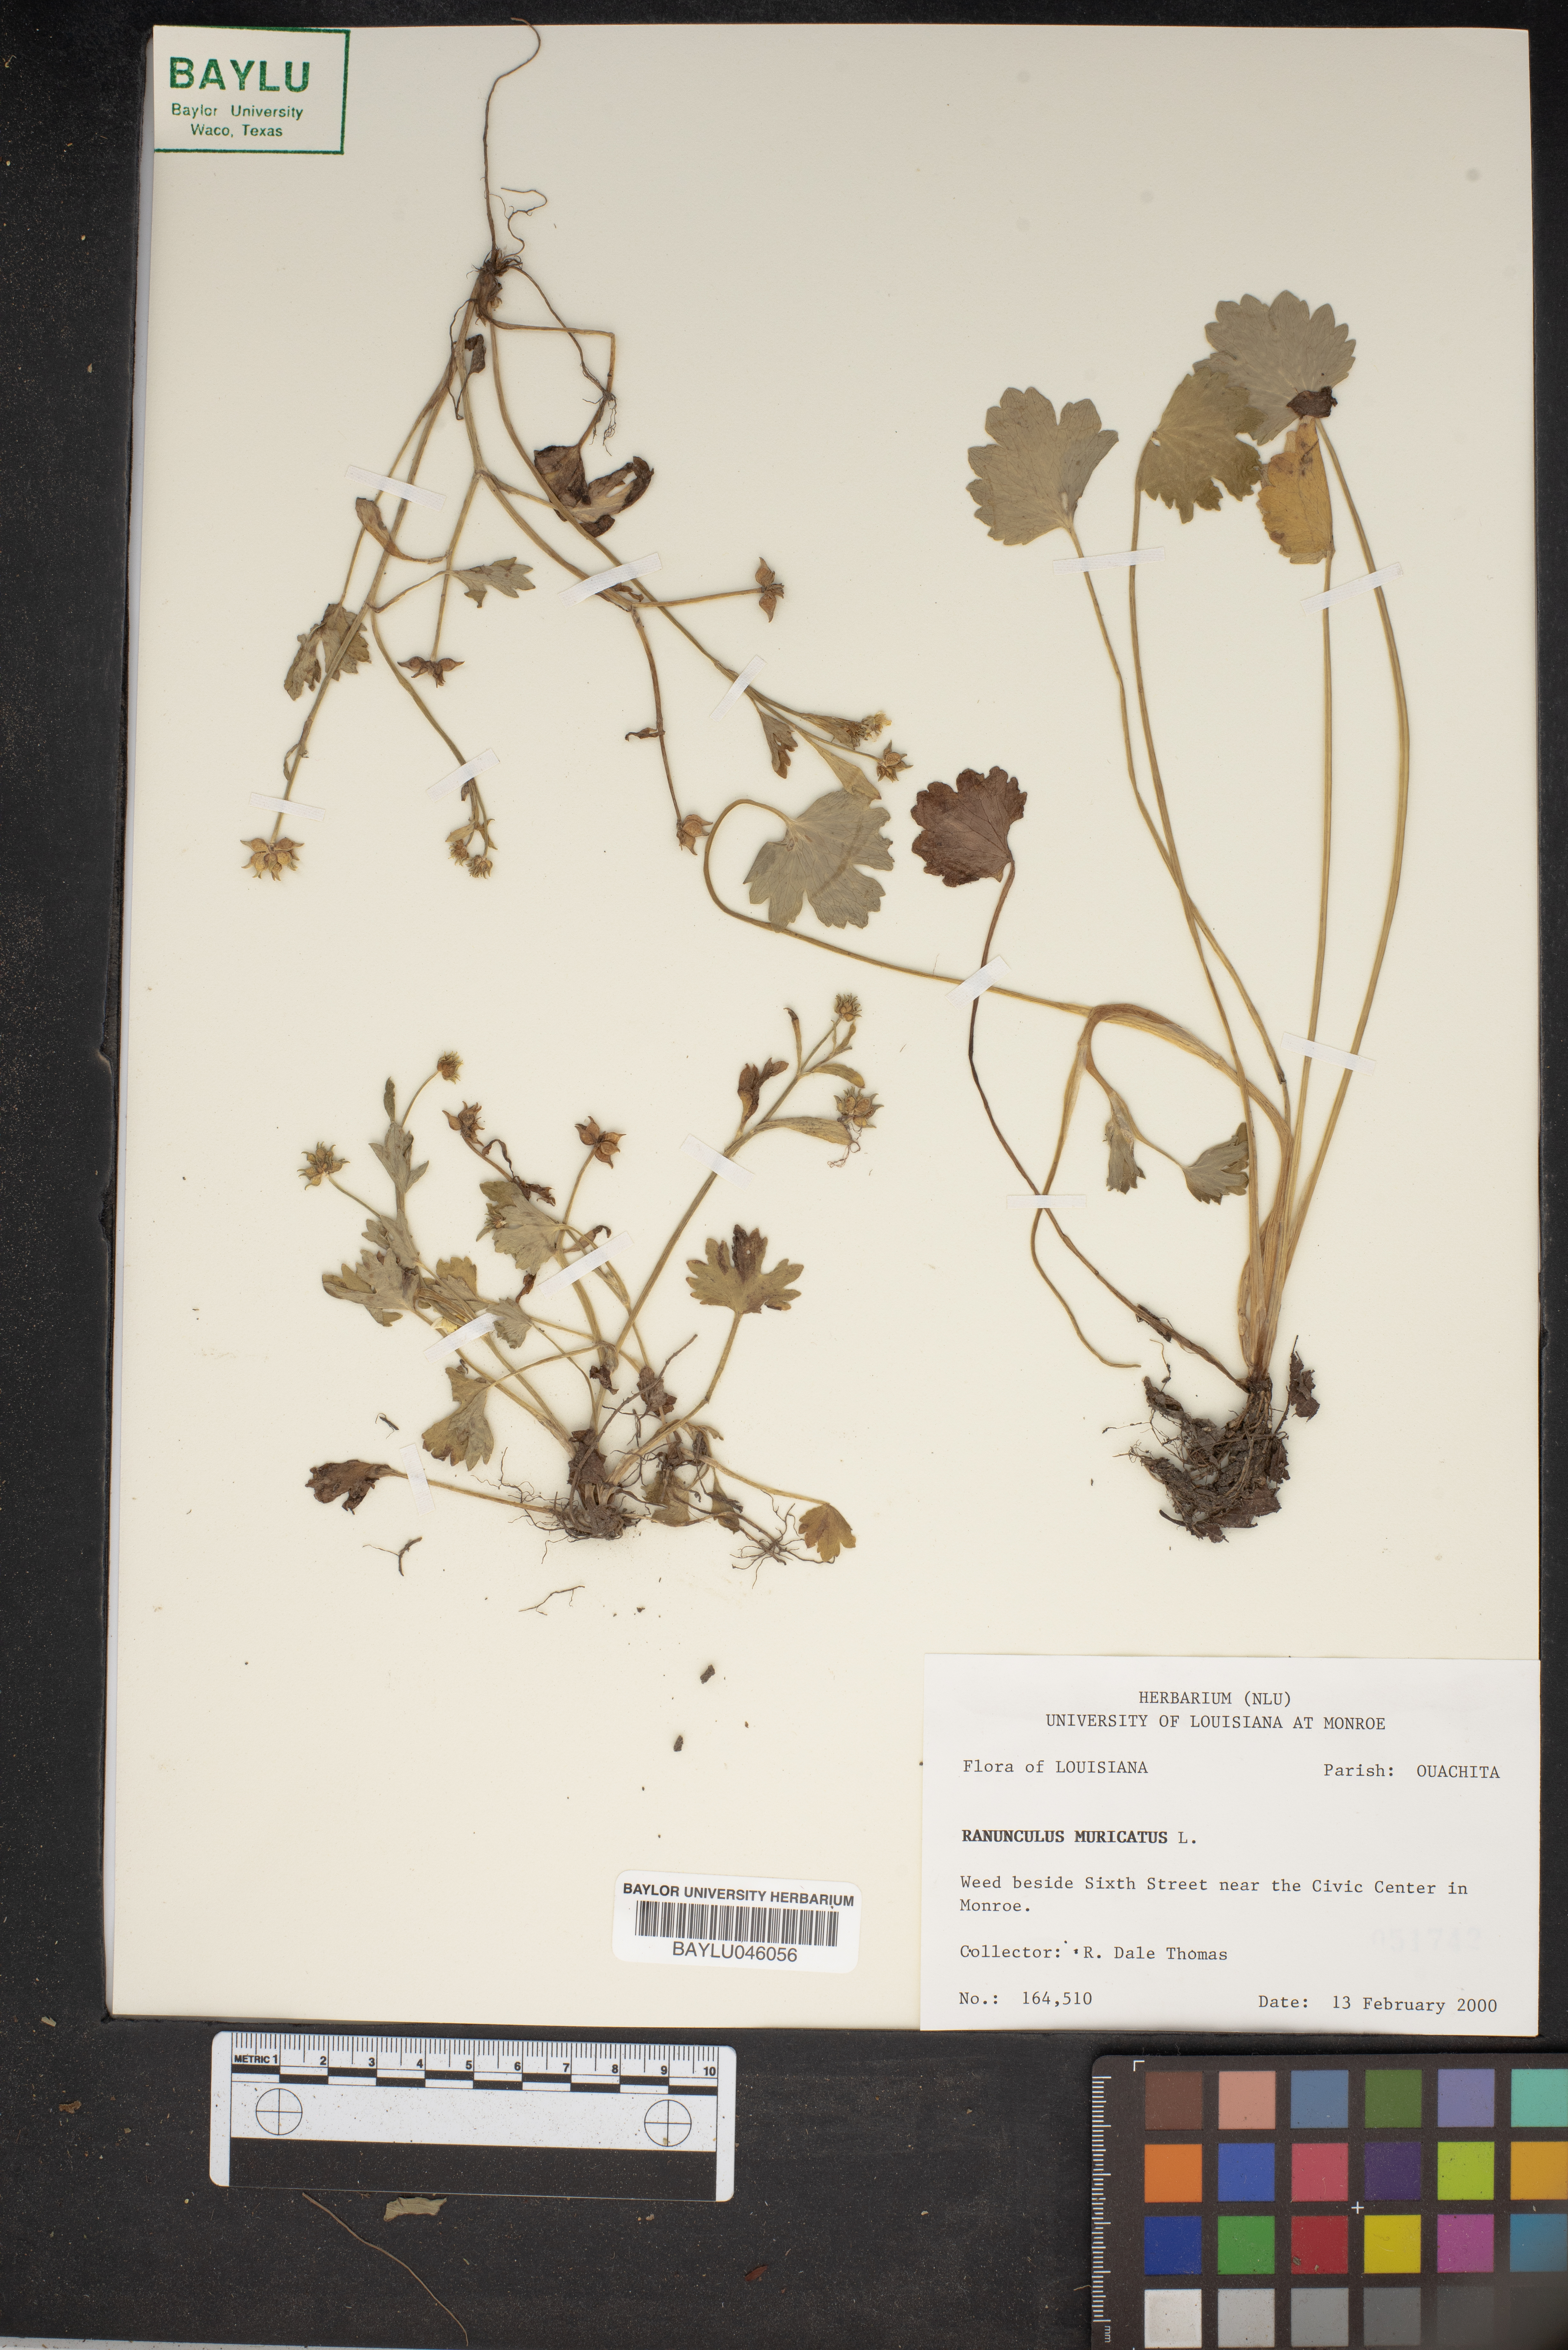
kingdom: Plantae
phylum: Tracheophyta
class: Magnoliopsida
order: Ranunculales
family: Ranunculaceae
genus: Ranunculus
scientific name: Ranunculus muricatus
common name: Rough-fruited buttercup
